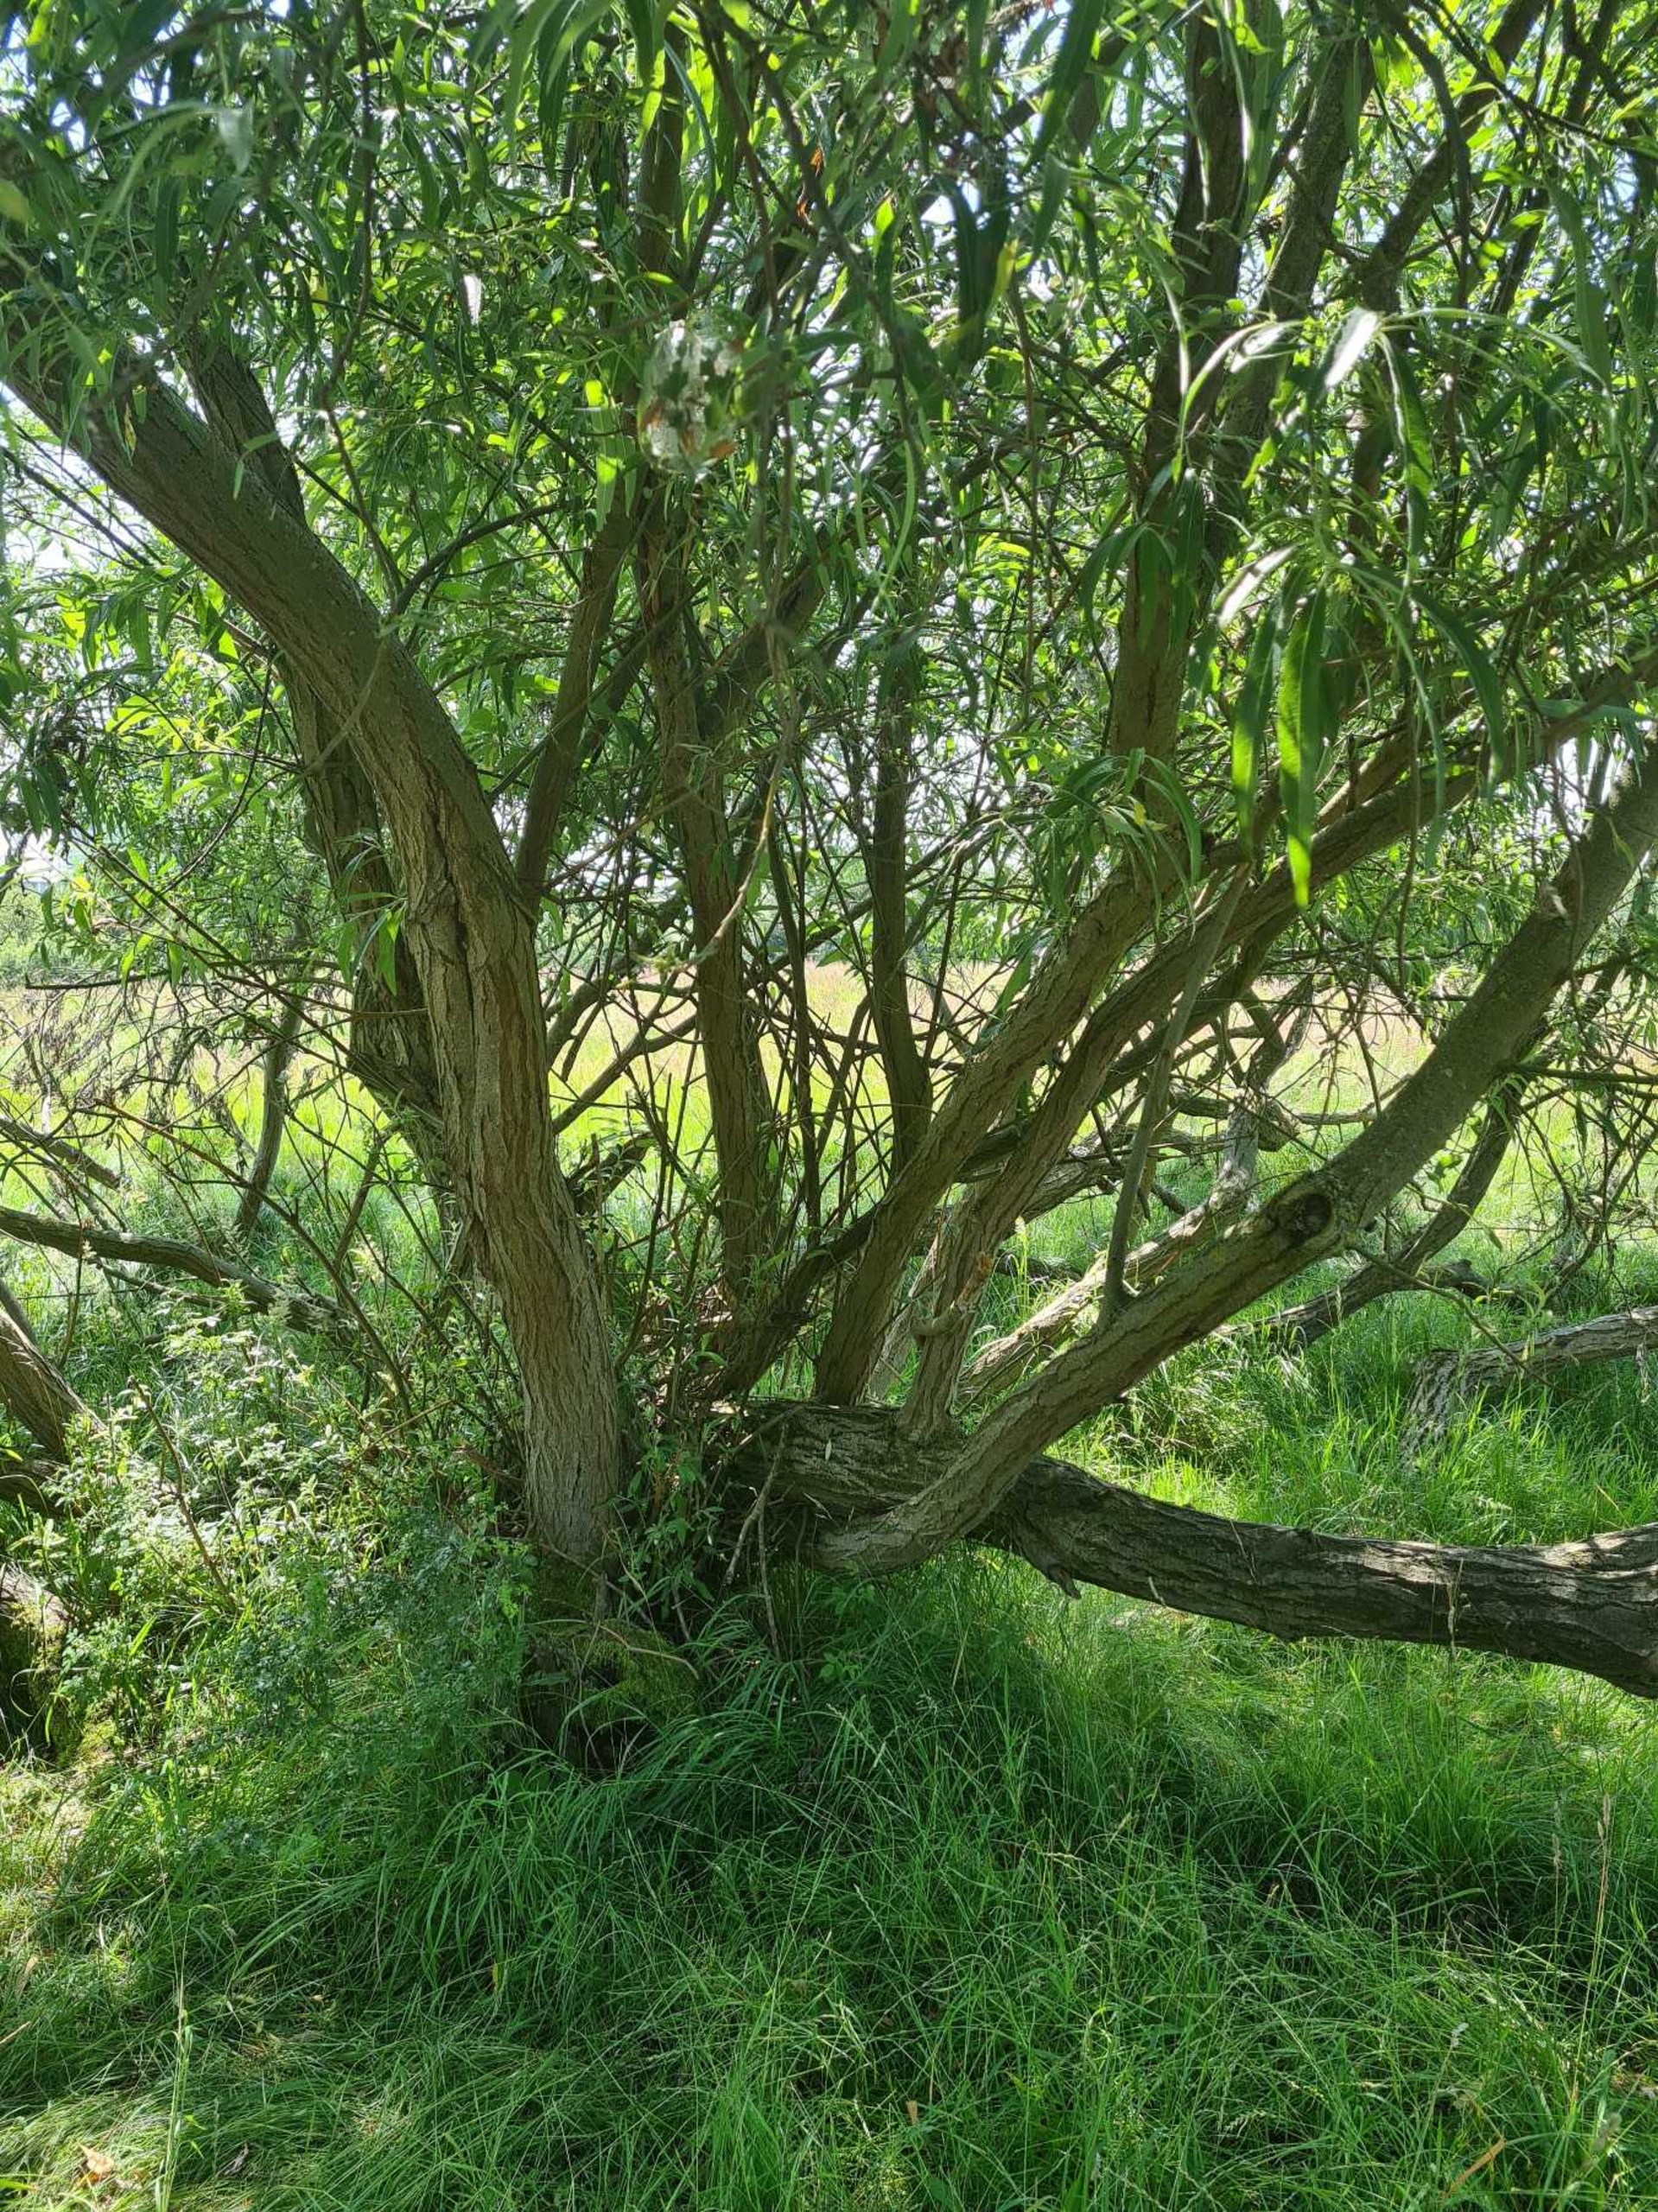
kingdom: Plantae
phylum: Tracheophyta
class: Magnoliopsida
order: Malpighiales
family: Salicaceae
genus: Salix
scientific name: Salix stipularis
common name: Langbladet pil
